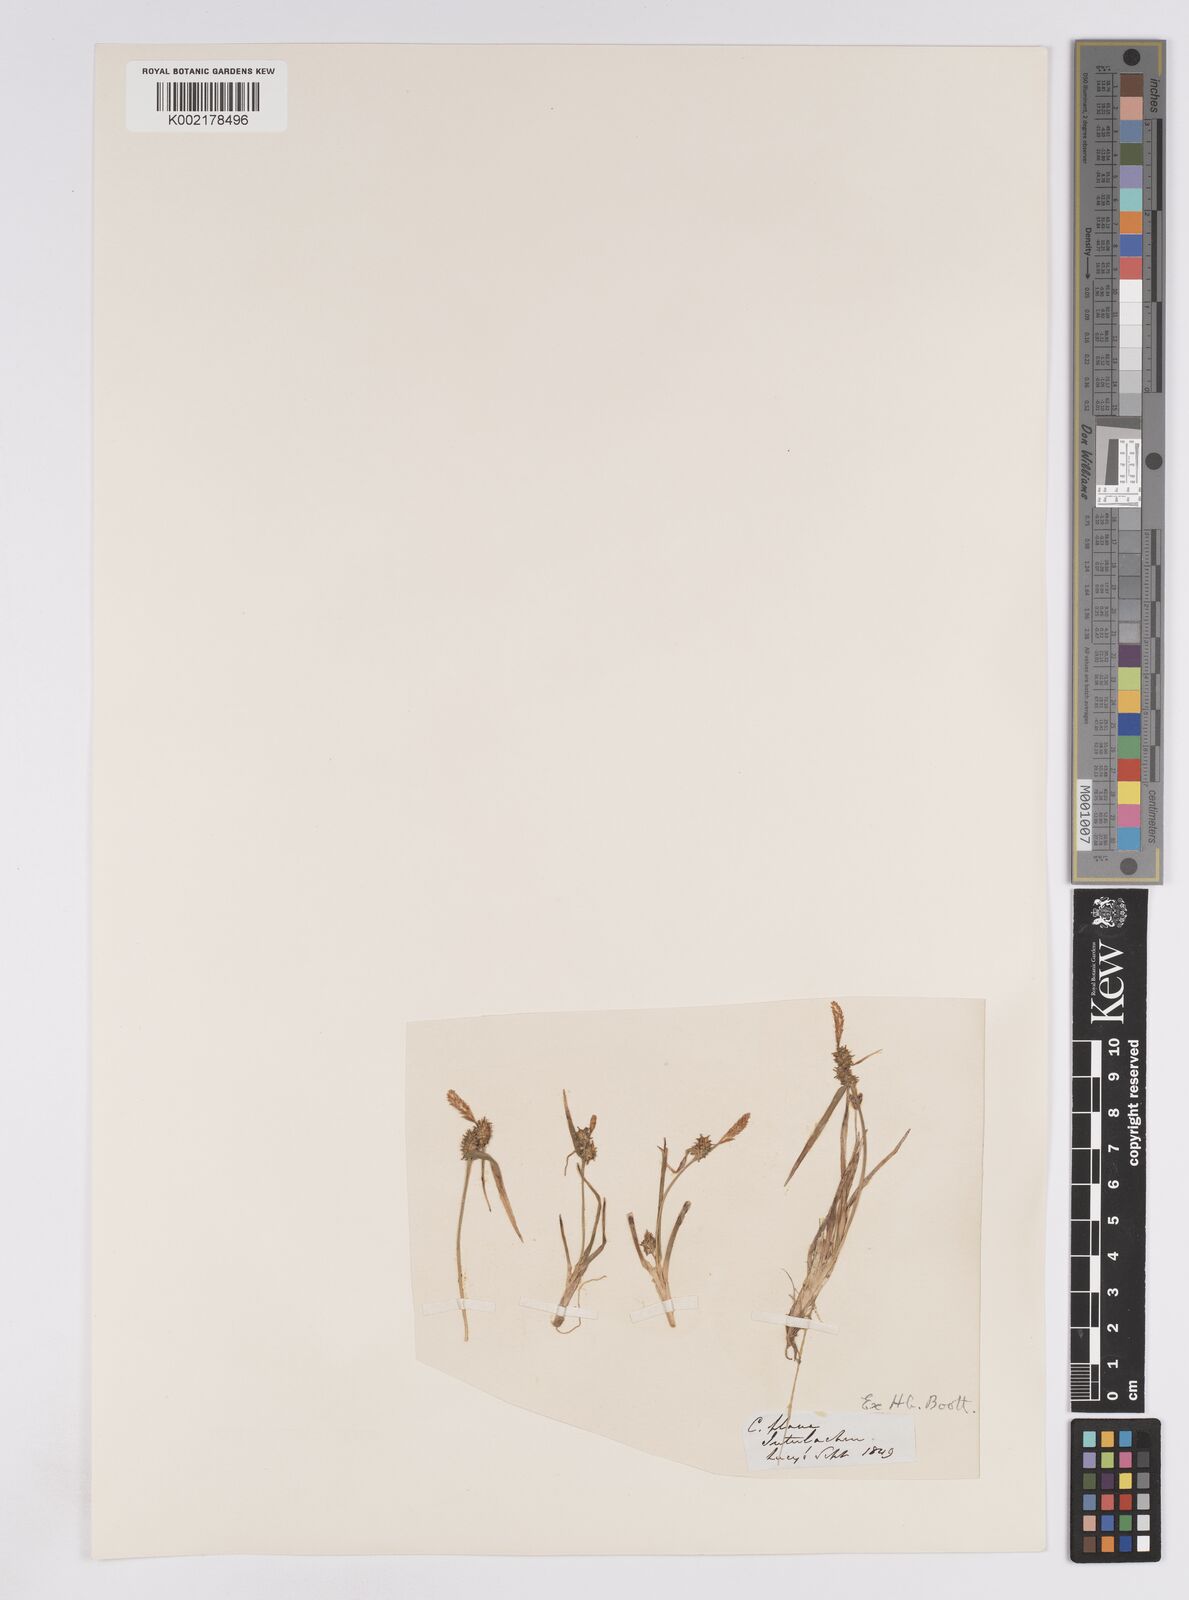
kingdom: Plantae
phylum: Tracheophyta
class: Liliopsida
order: Poales
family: Cyperaceae
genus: Carex
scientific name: Carex demissa
